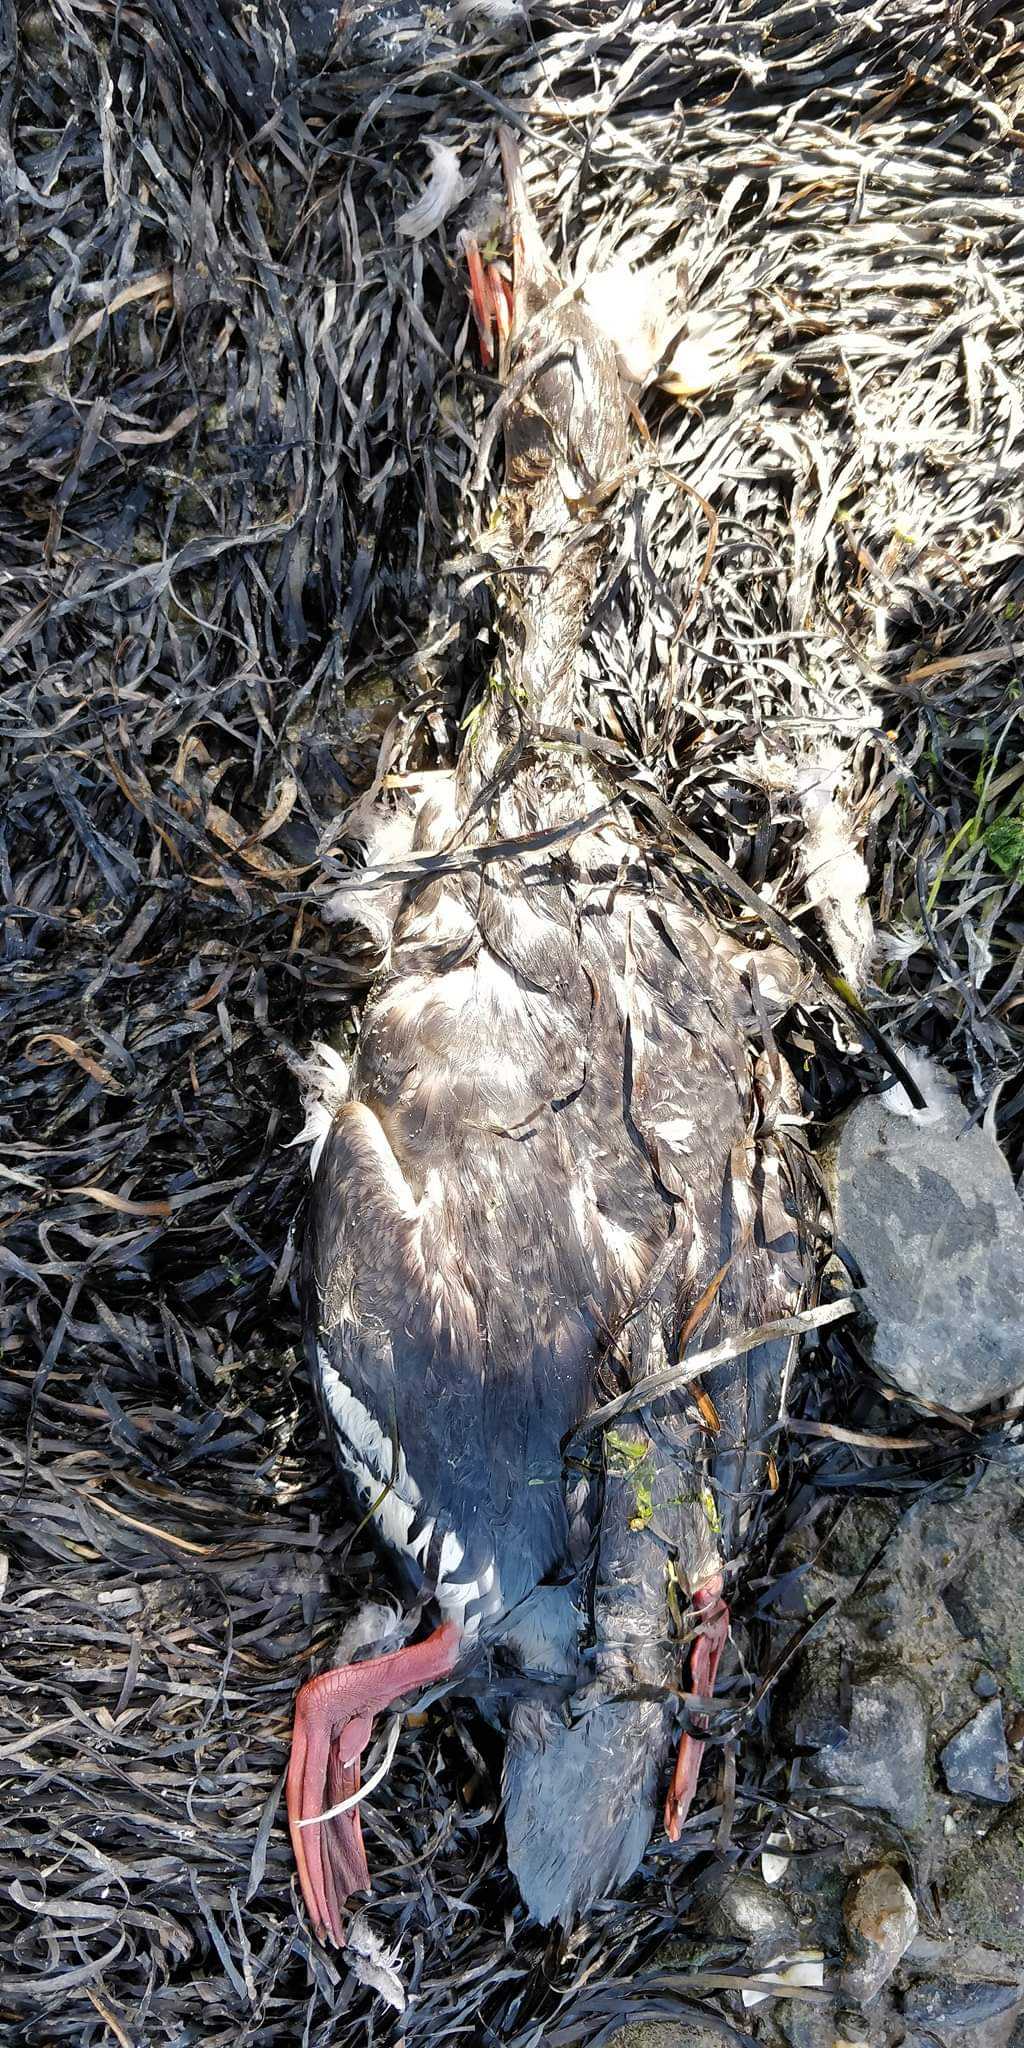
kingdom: Animalia
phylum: Chordata
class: Aves
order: Anseriformes
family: Anatidae
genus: Mergus
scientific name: Mergus serrator
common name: Toppet skallesluger
